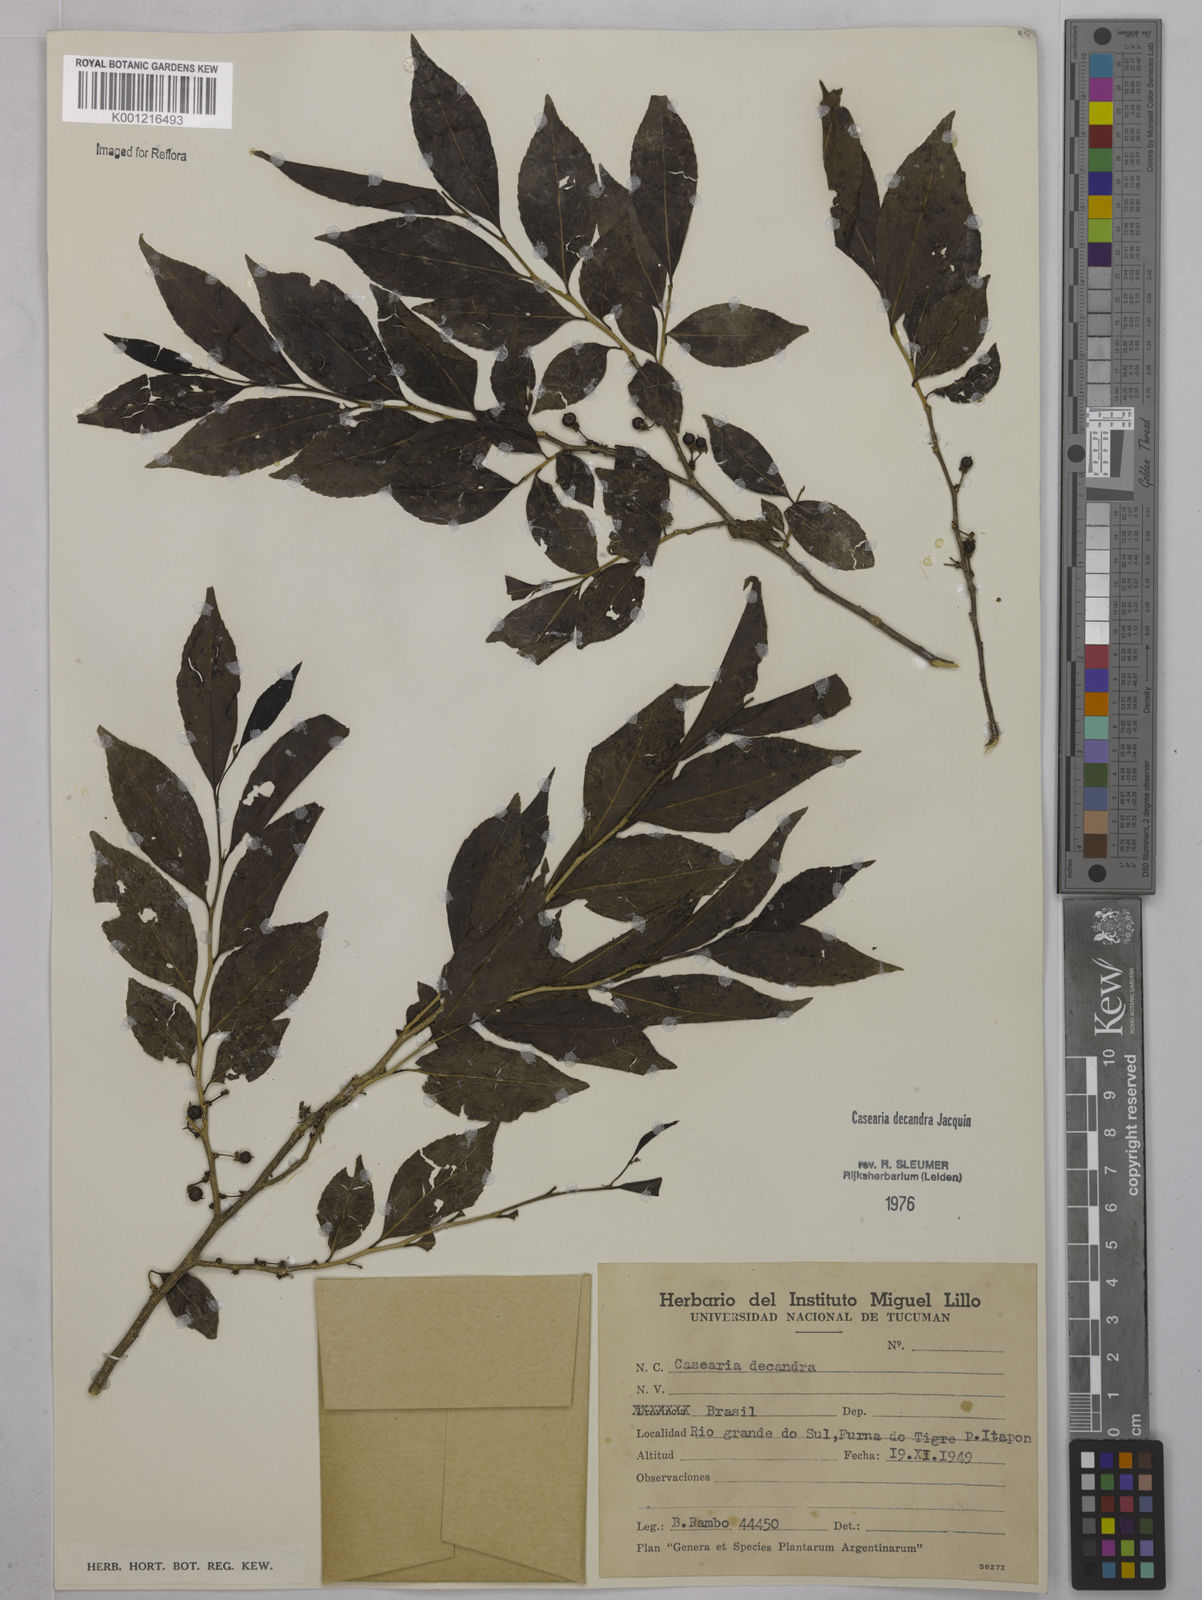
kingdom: Plantae
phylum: Tracheophyta
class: Magnoliopsida
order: Malpighiales
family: Salicaceae
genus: Casearia
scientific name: Casearia decandra
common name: Crack open
